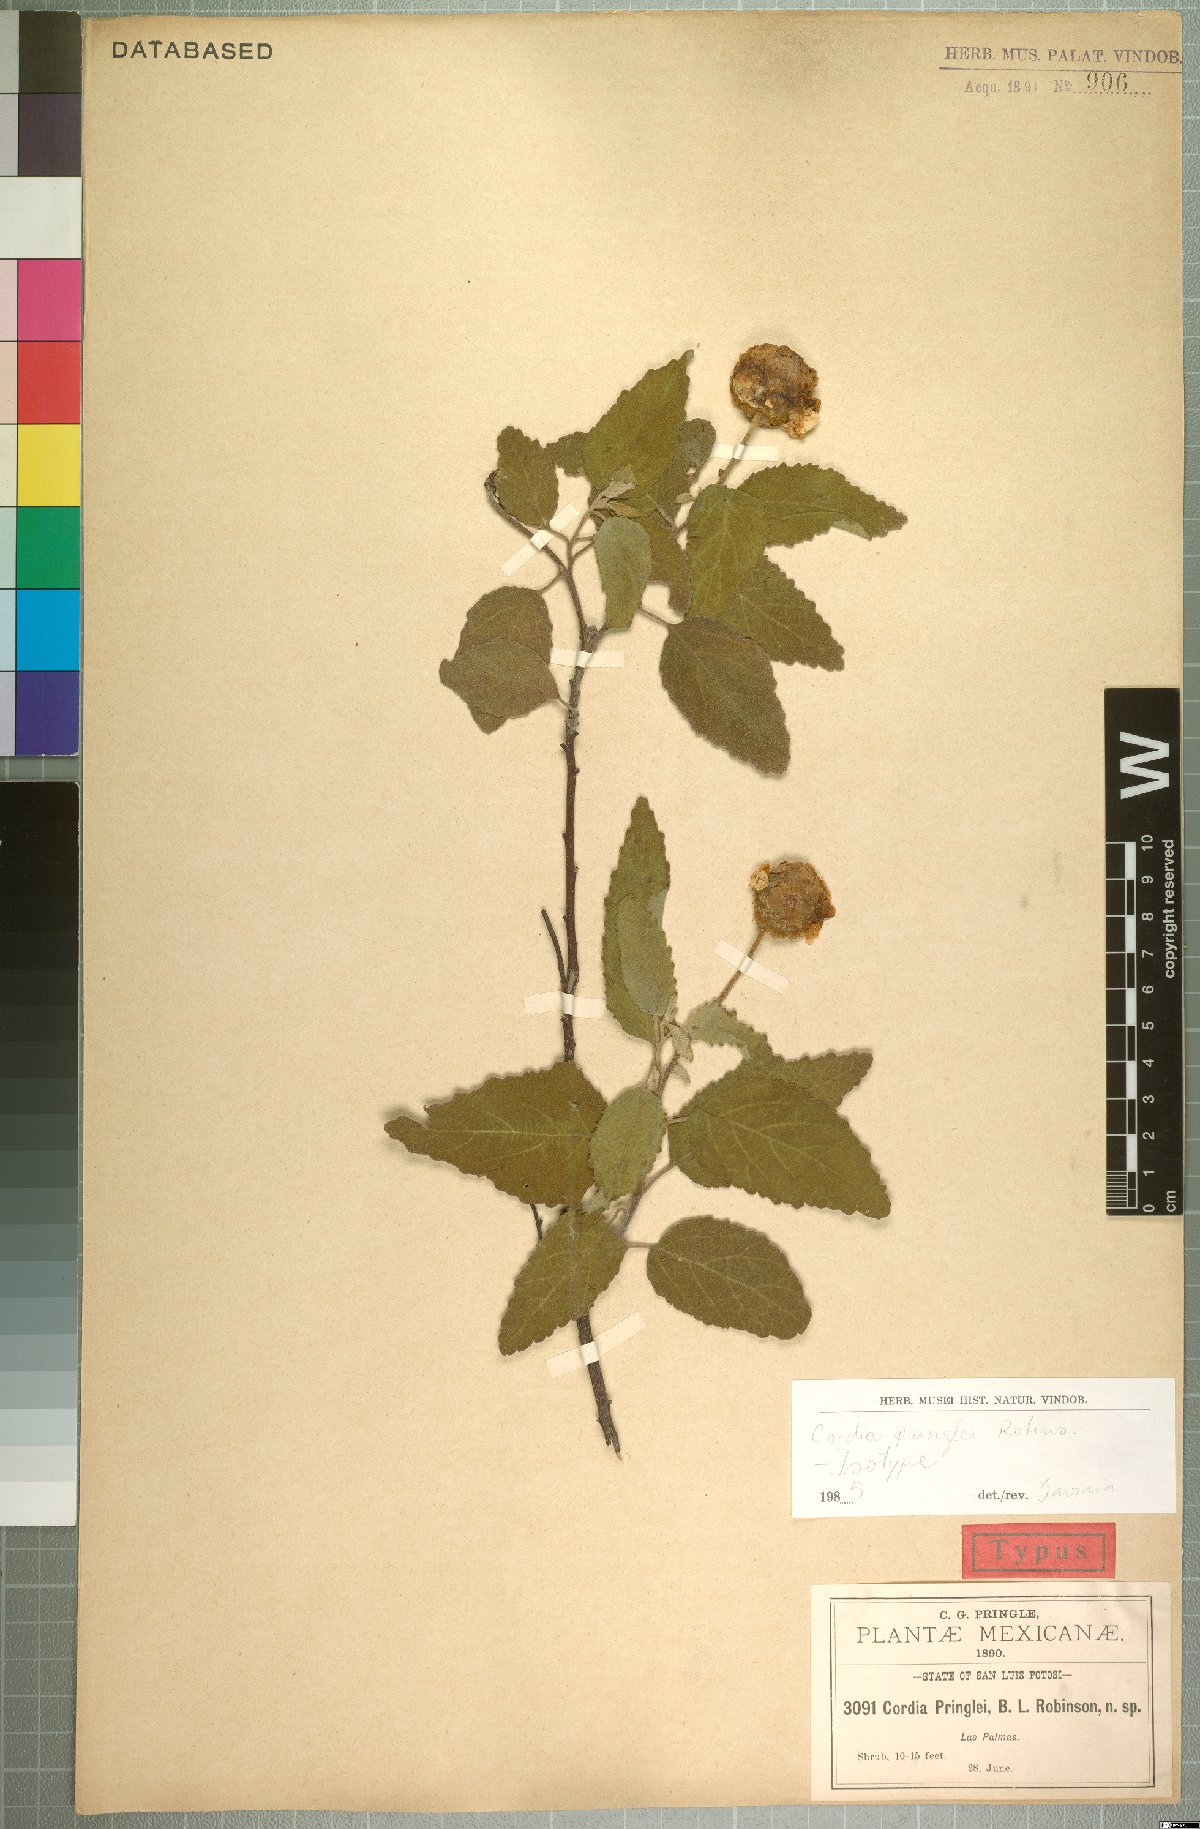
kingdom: Plantae
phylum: Tracheophyta
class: Magnoliopsida
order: Boraginales
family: Cordiaceae
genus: Varronia
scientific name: Varronia macrocephala
